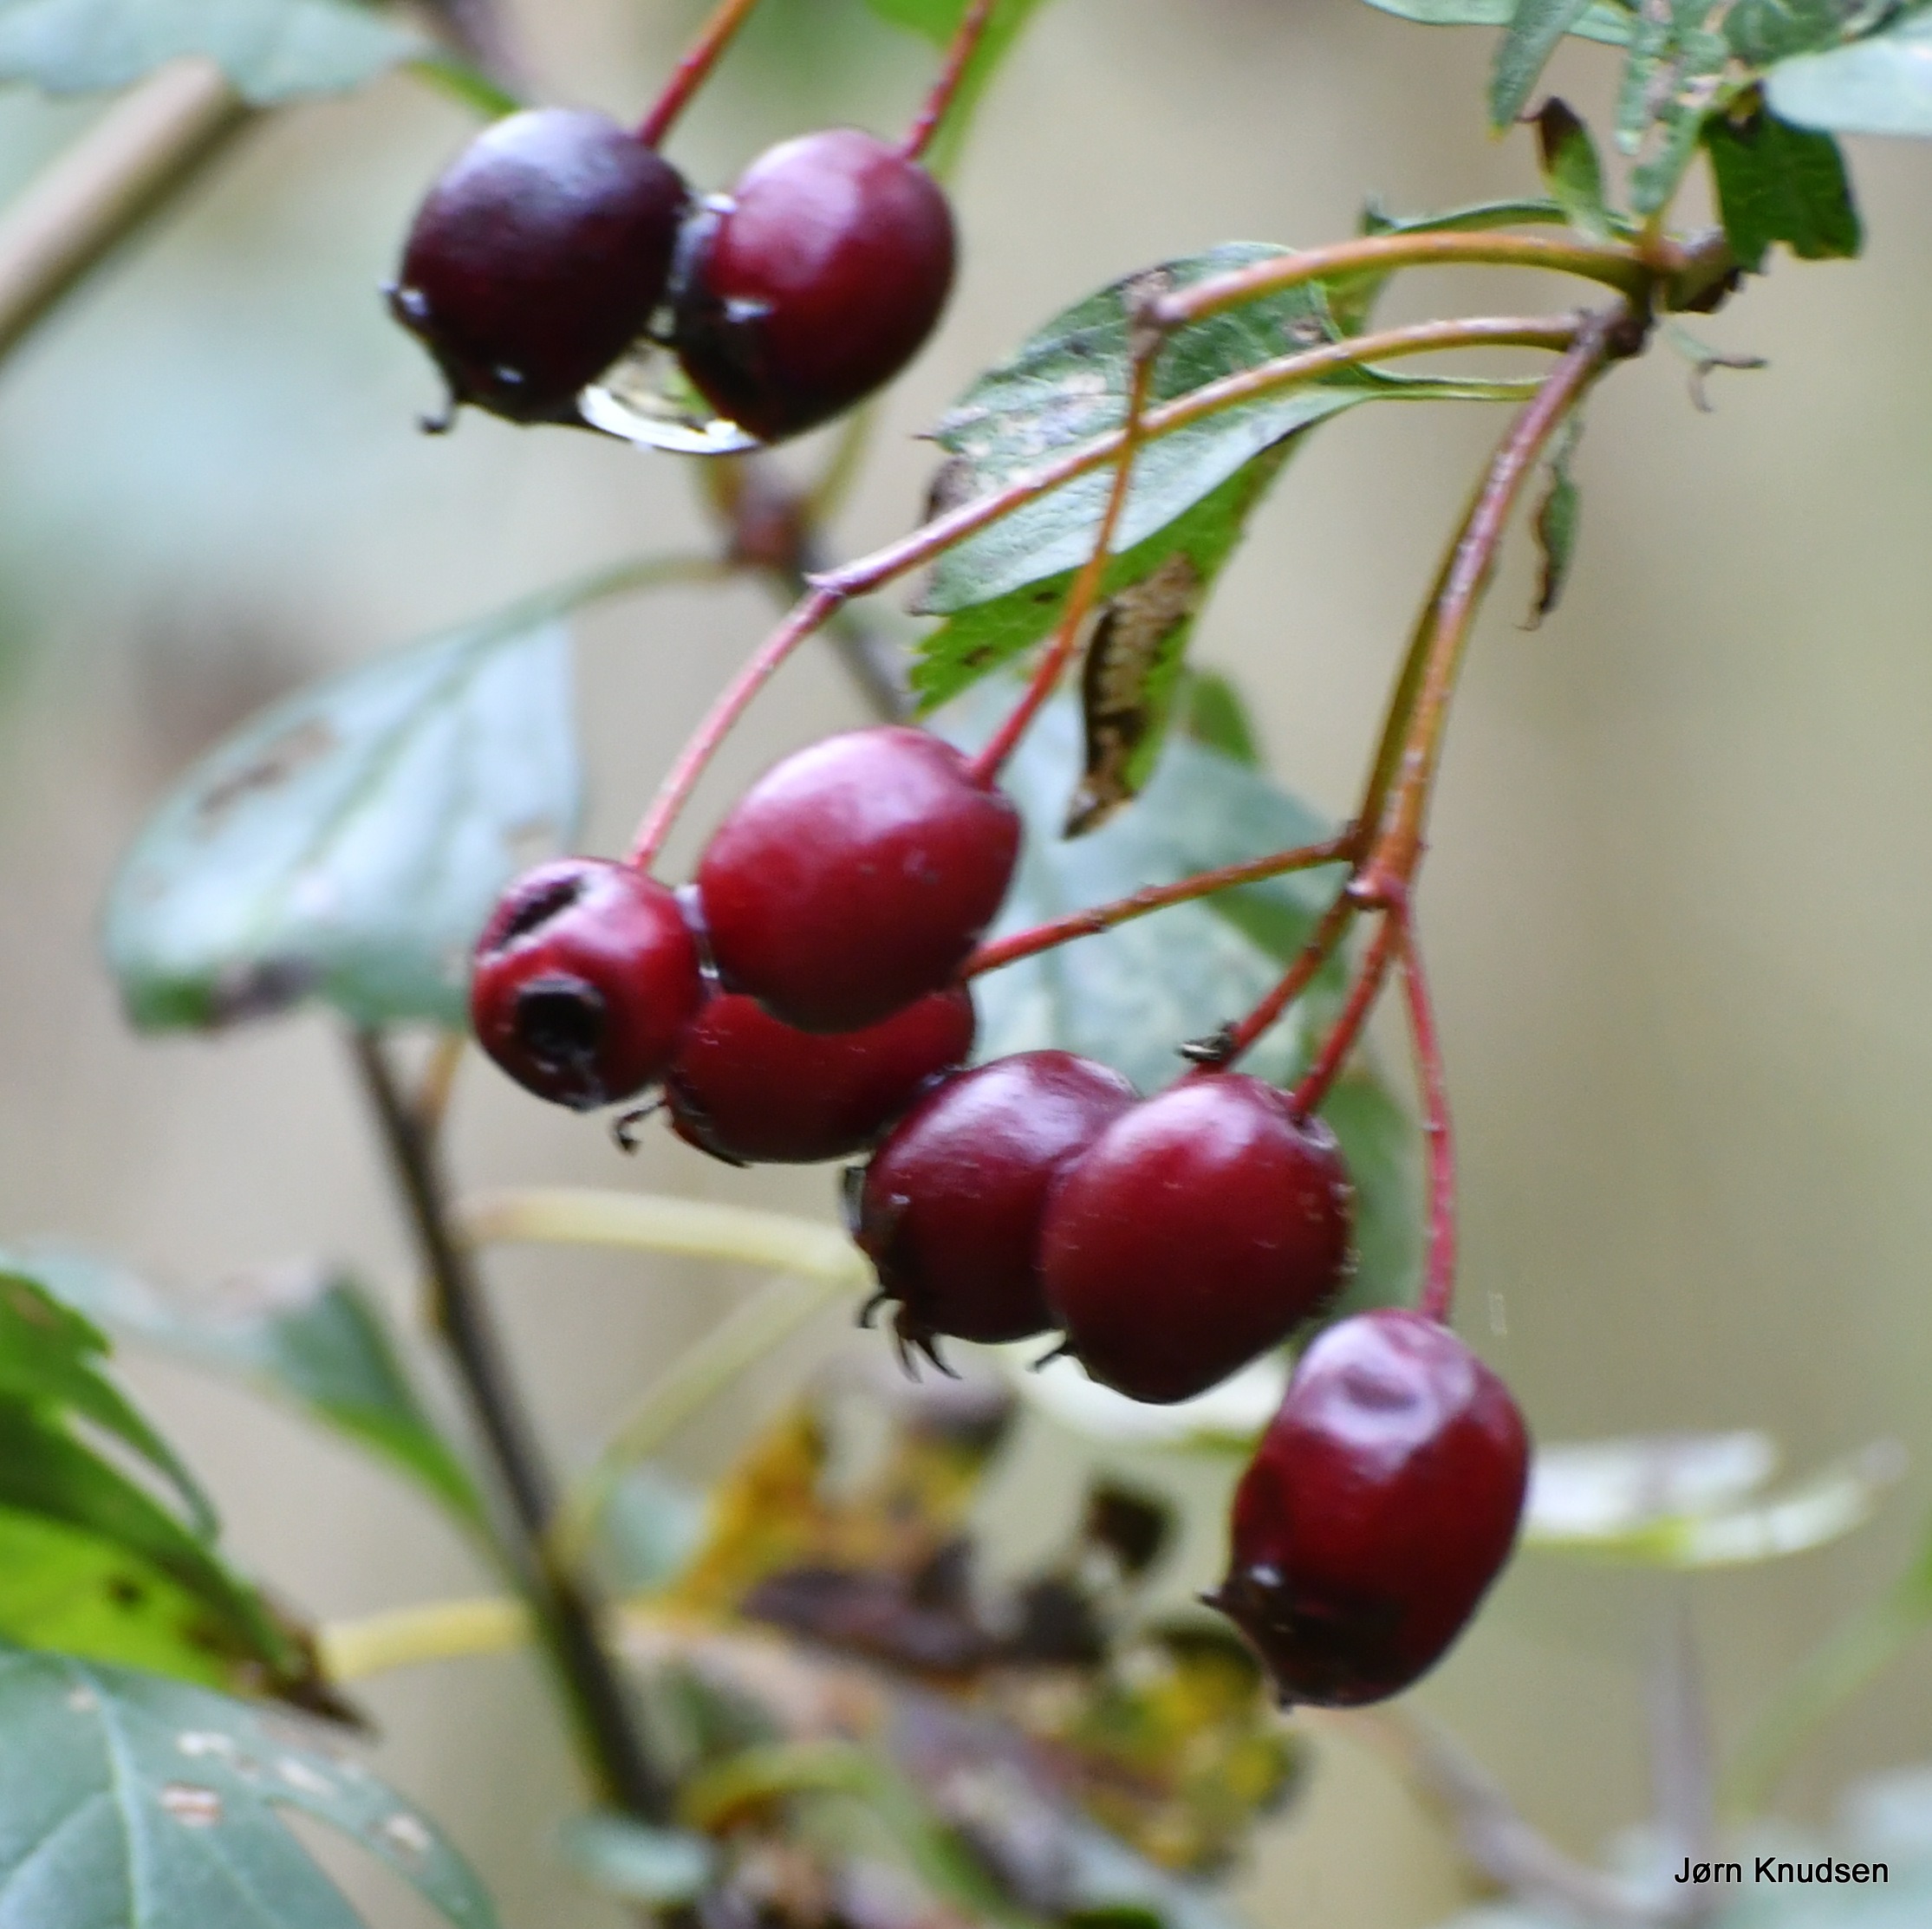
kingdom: Plantae
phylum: Tracheophyta
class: Magnoliopsida
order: Rosales
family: Rosaceae
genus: Crataegus
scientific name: Crataegus monogyna
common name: Engriflet hvidtjørn
